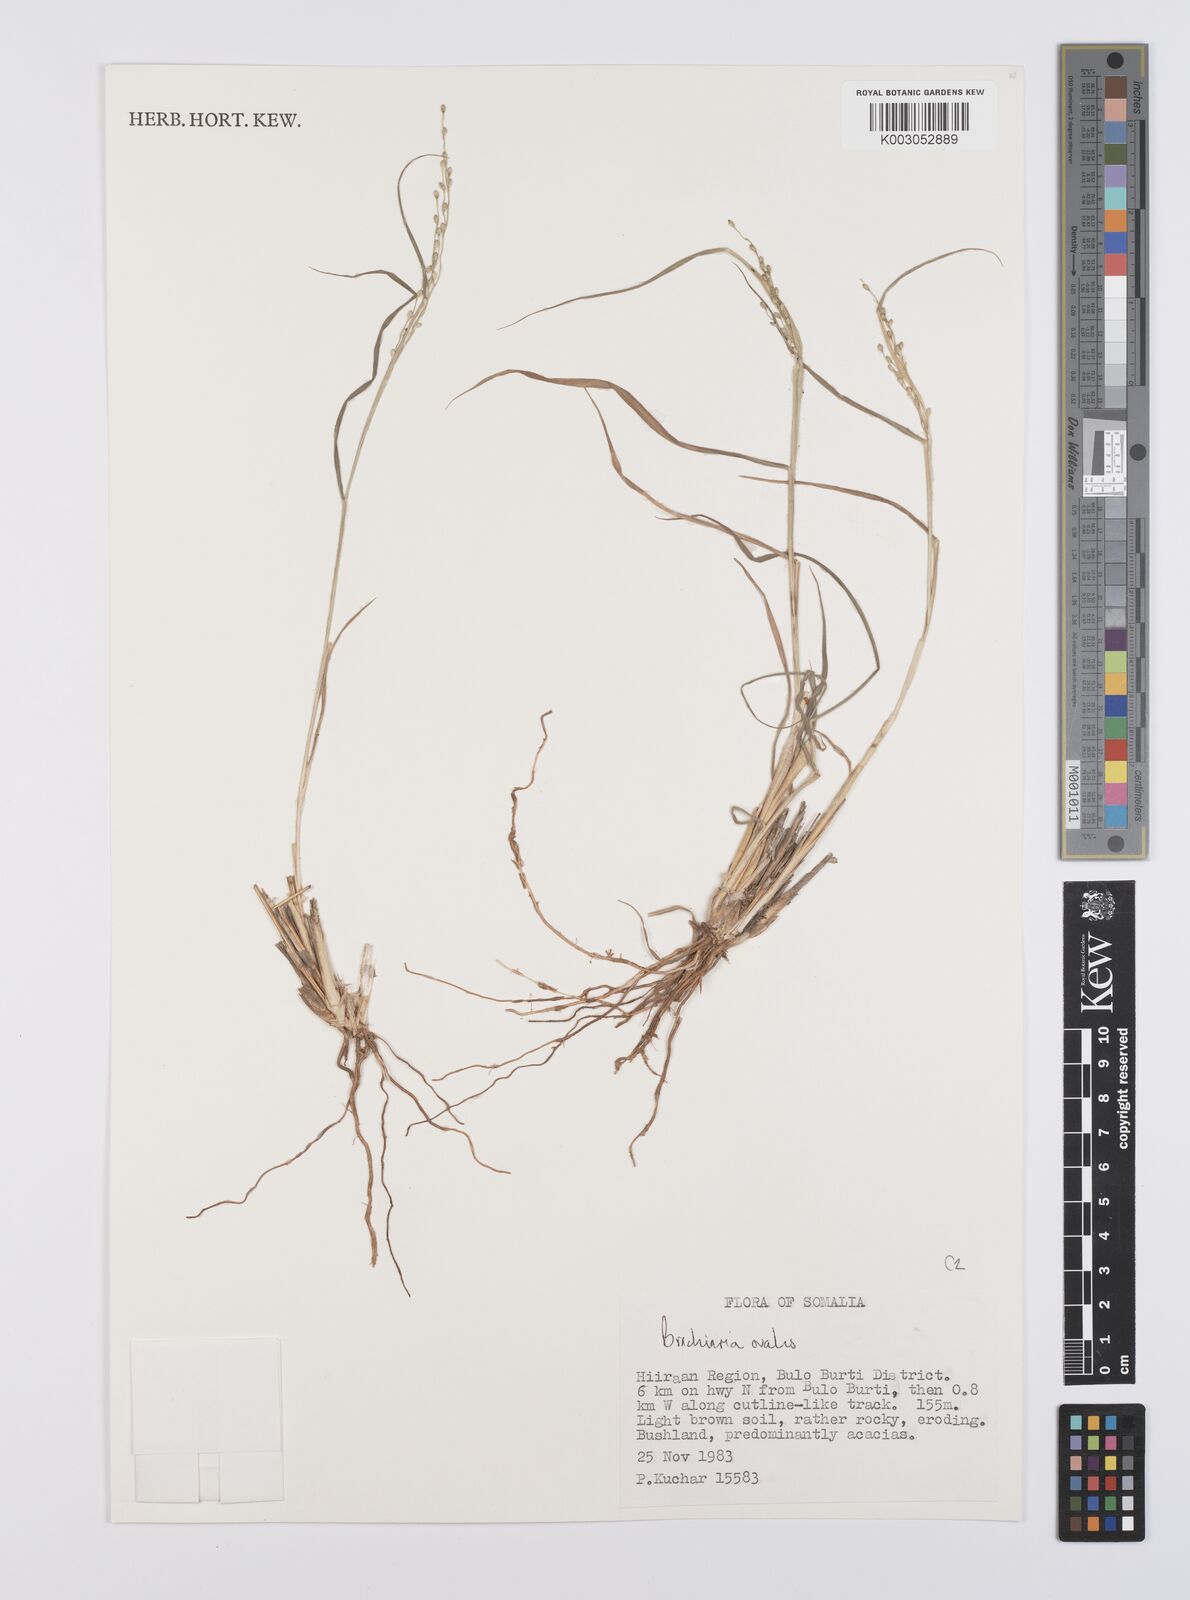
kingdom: Plantae
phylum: Tracheophyta
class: Liliopsida
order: Poales
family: Poaceae
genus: Urochloa
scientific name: Urochloa ovalis
